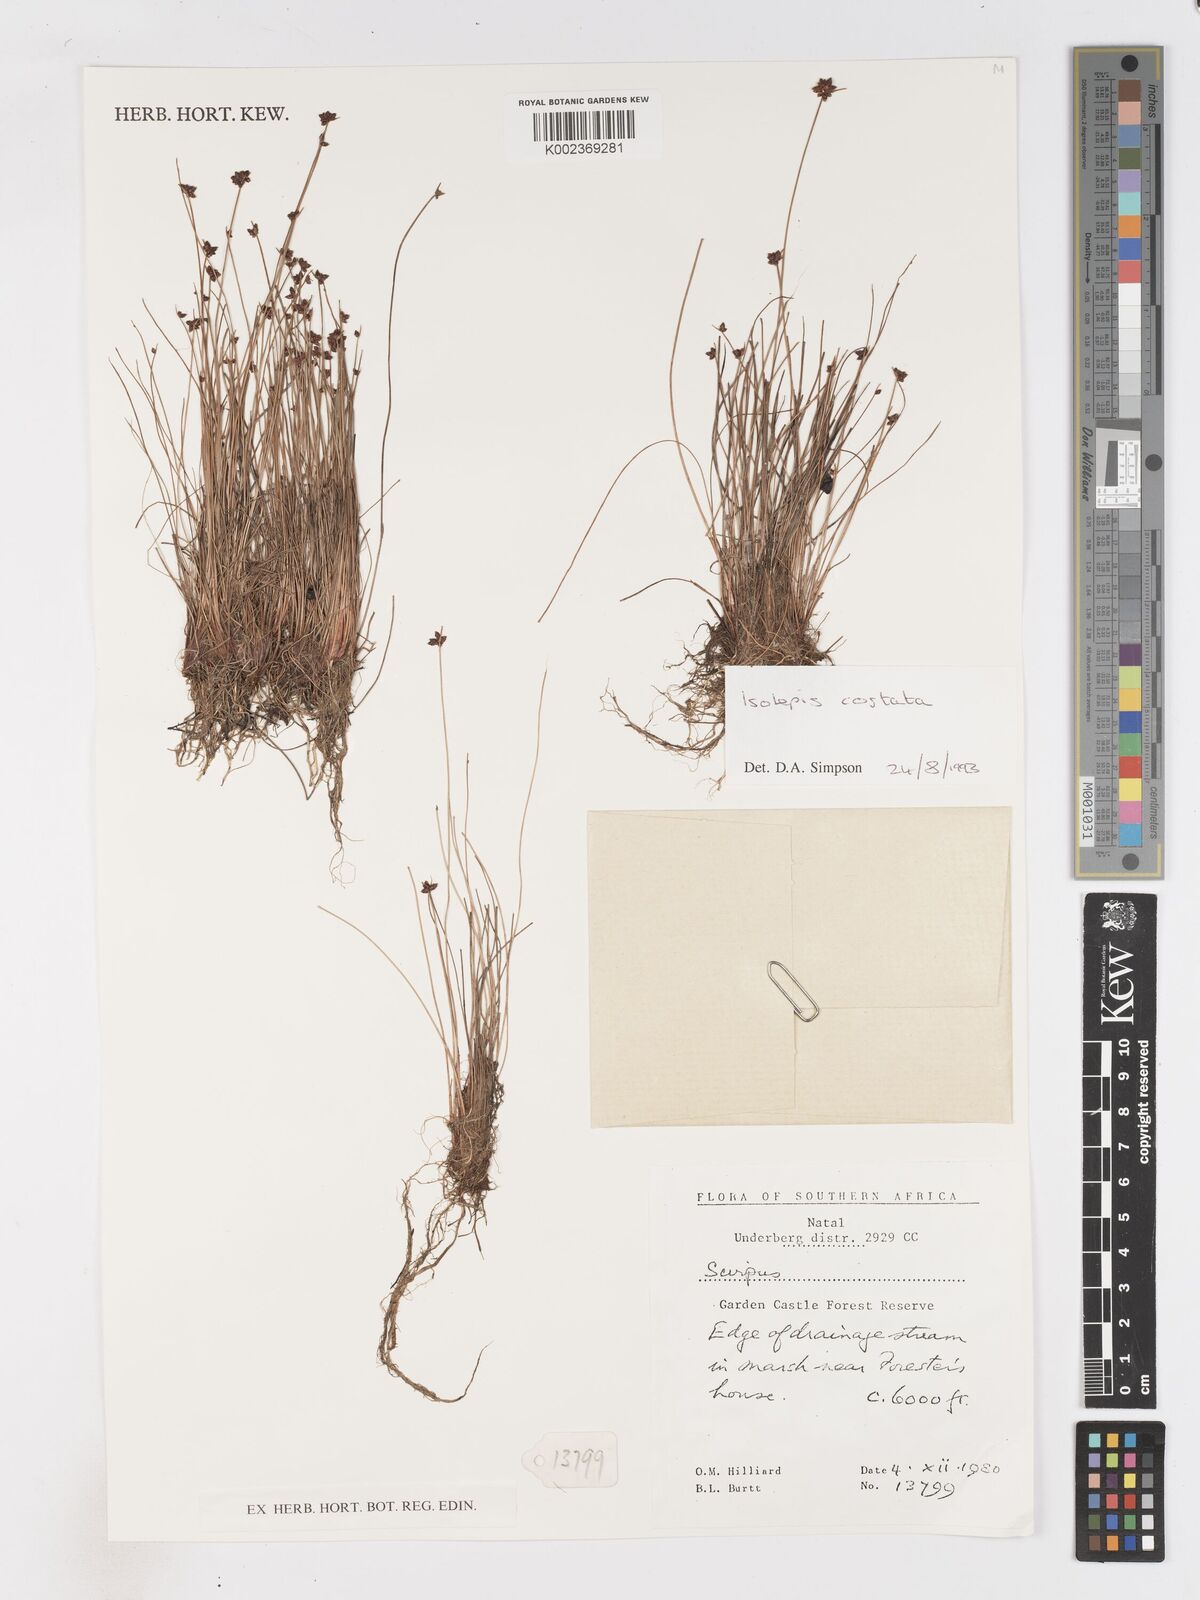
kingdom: Plantae
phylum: Tracheophyta
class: Liliopsida
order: Poales
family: Cyperaceae
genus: Isolepis
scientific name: Isolepis costata
